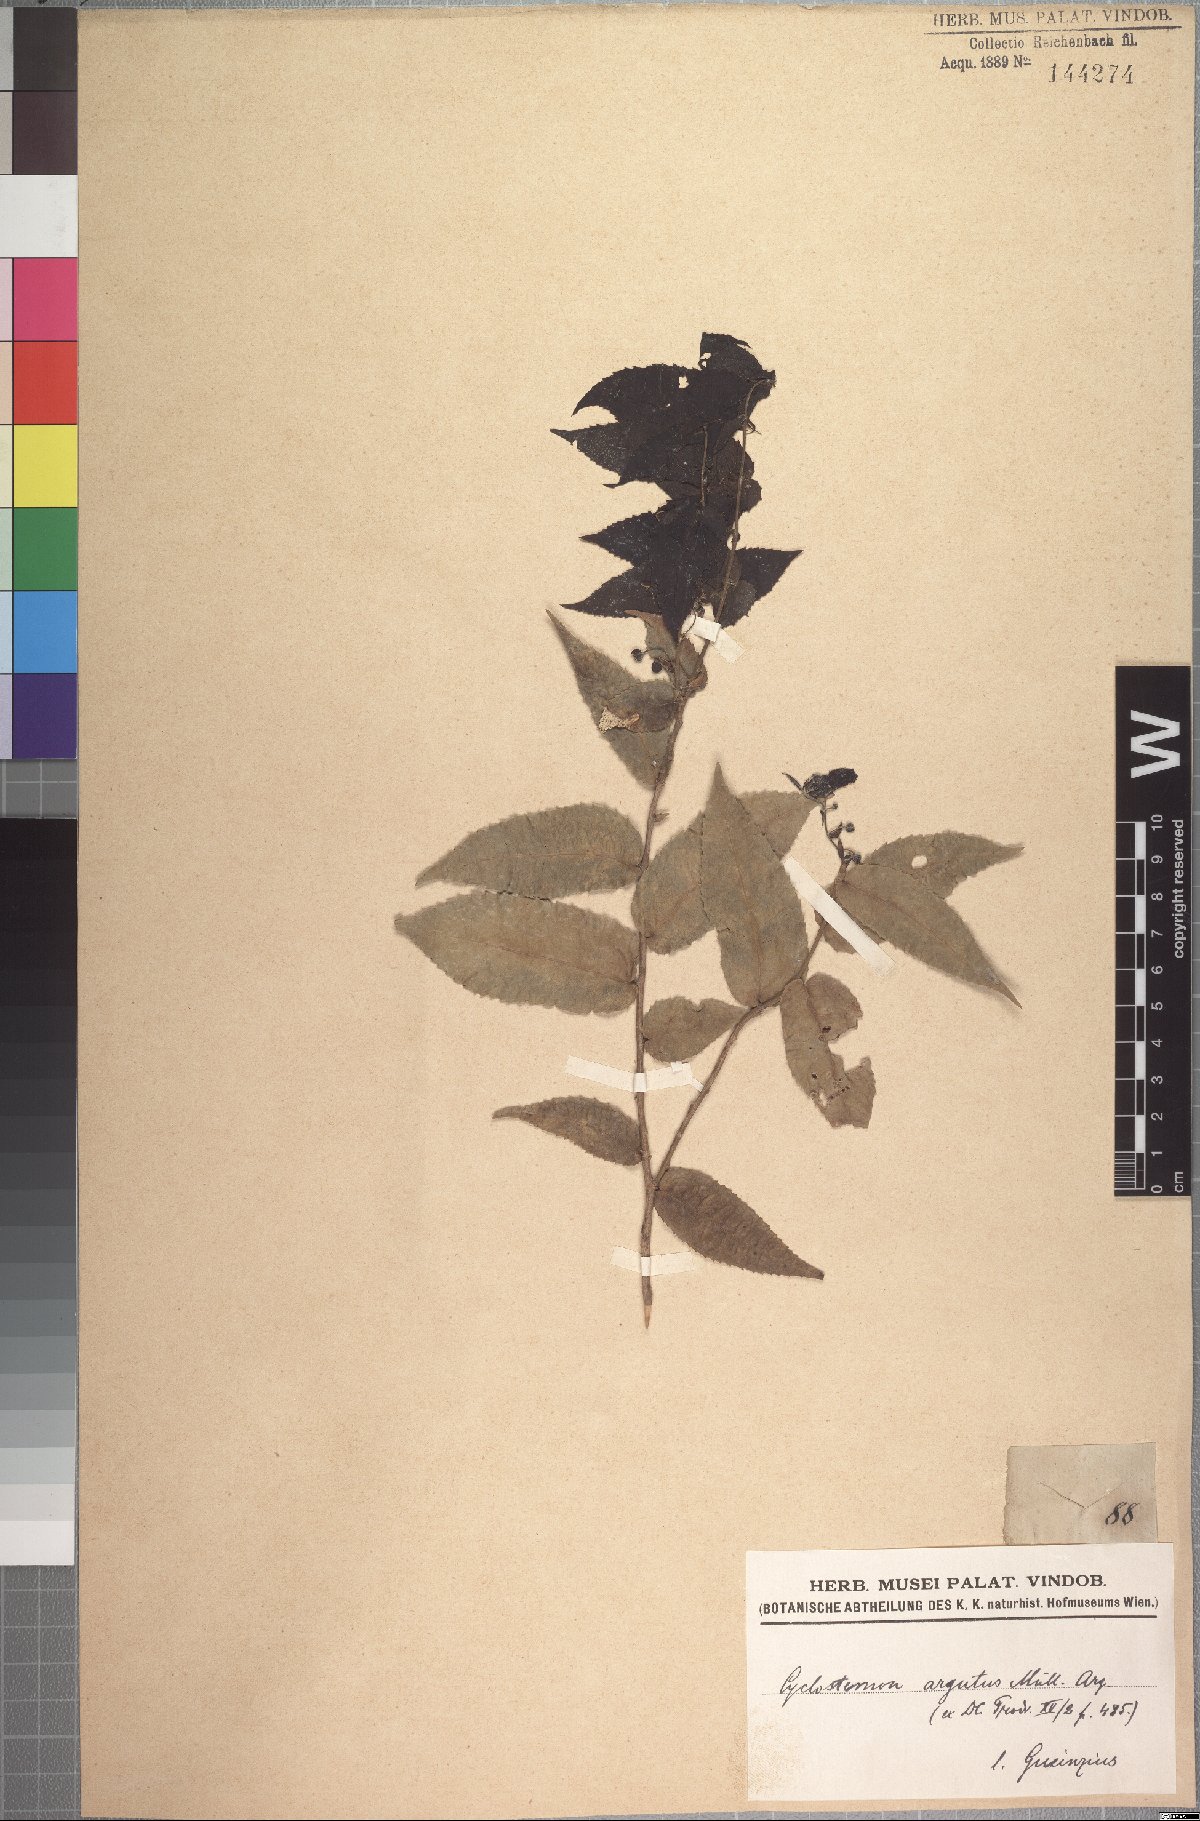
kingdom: Plantae
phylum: Tracheophyta
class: Magnoliopsida
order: Malpighiales
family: Putranjivaceae
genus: Drypetes
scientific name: Drypetes arguta
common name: Water ironplum
